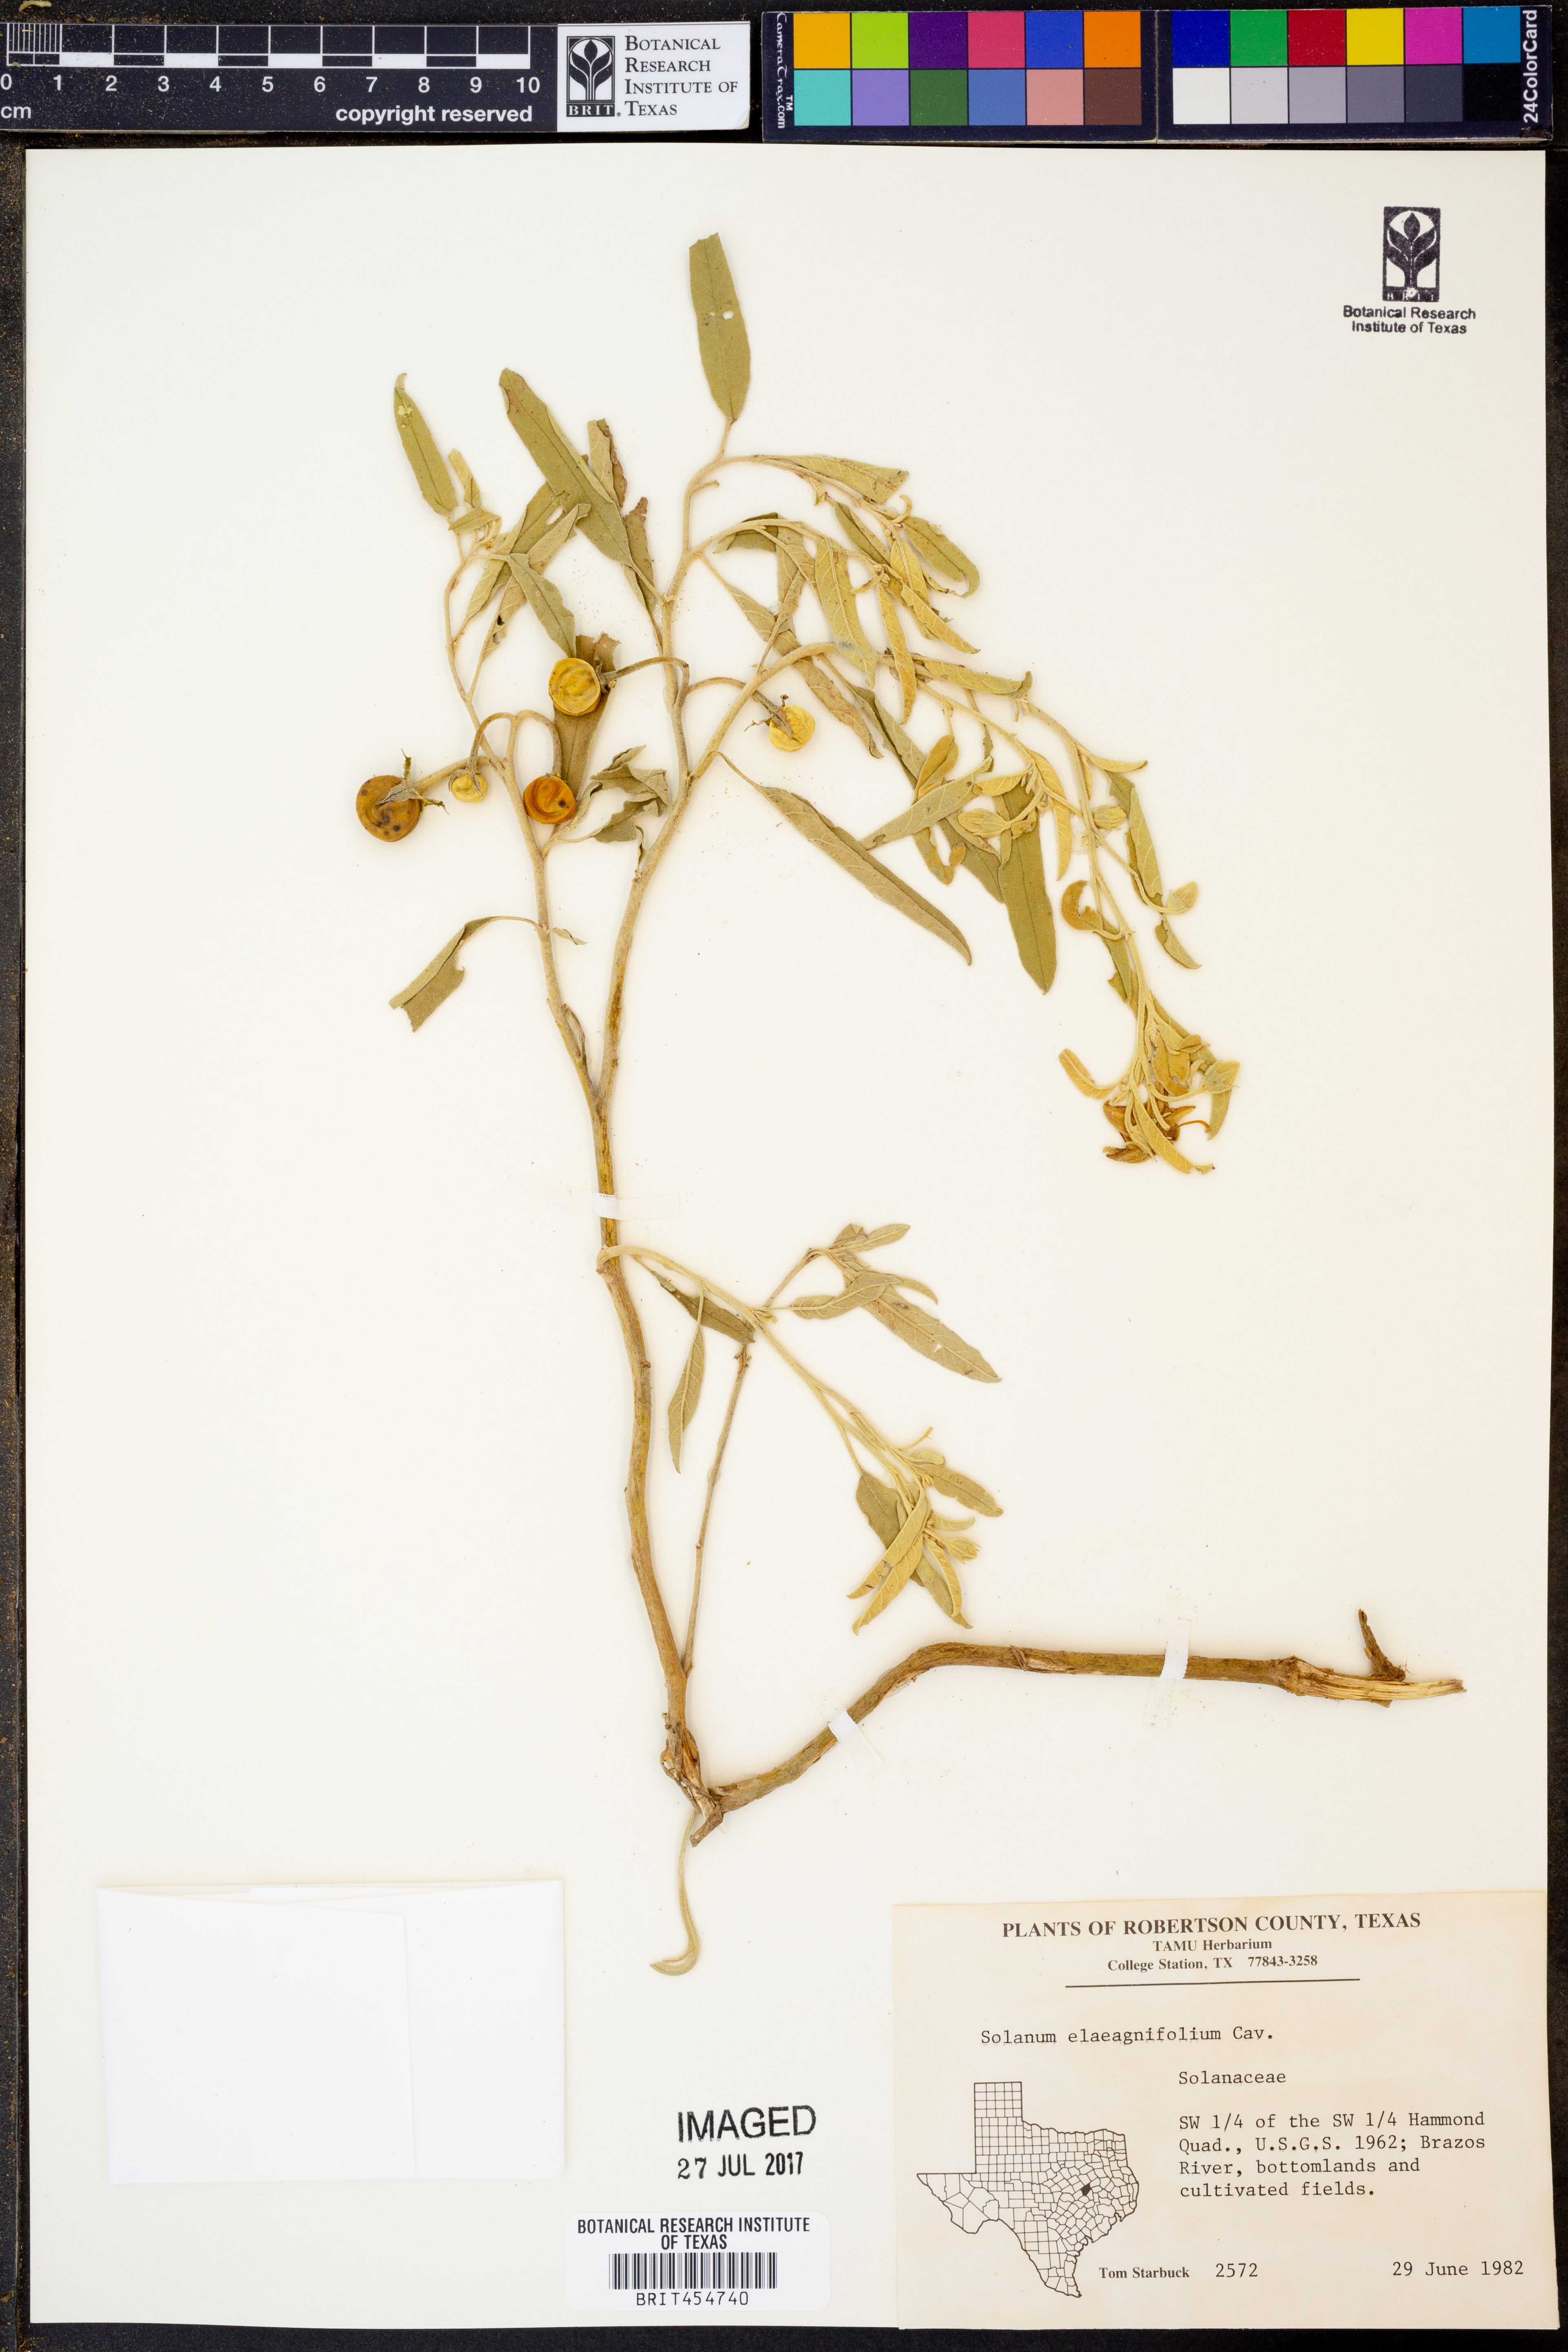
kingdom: Plantae
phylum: Tracheophyta
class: Magnoliopsida
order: Solanales
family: Solanaceae
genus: Solanum
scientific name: Solanum elaeagnifolium
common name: Silverleaf nightshade
